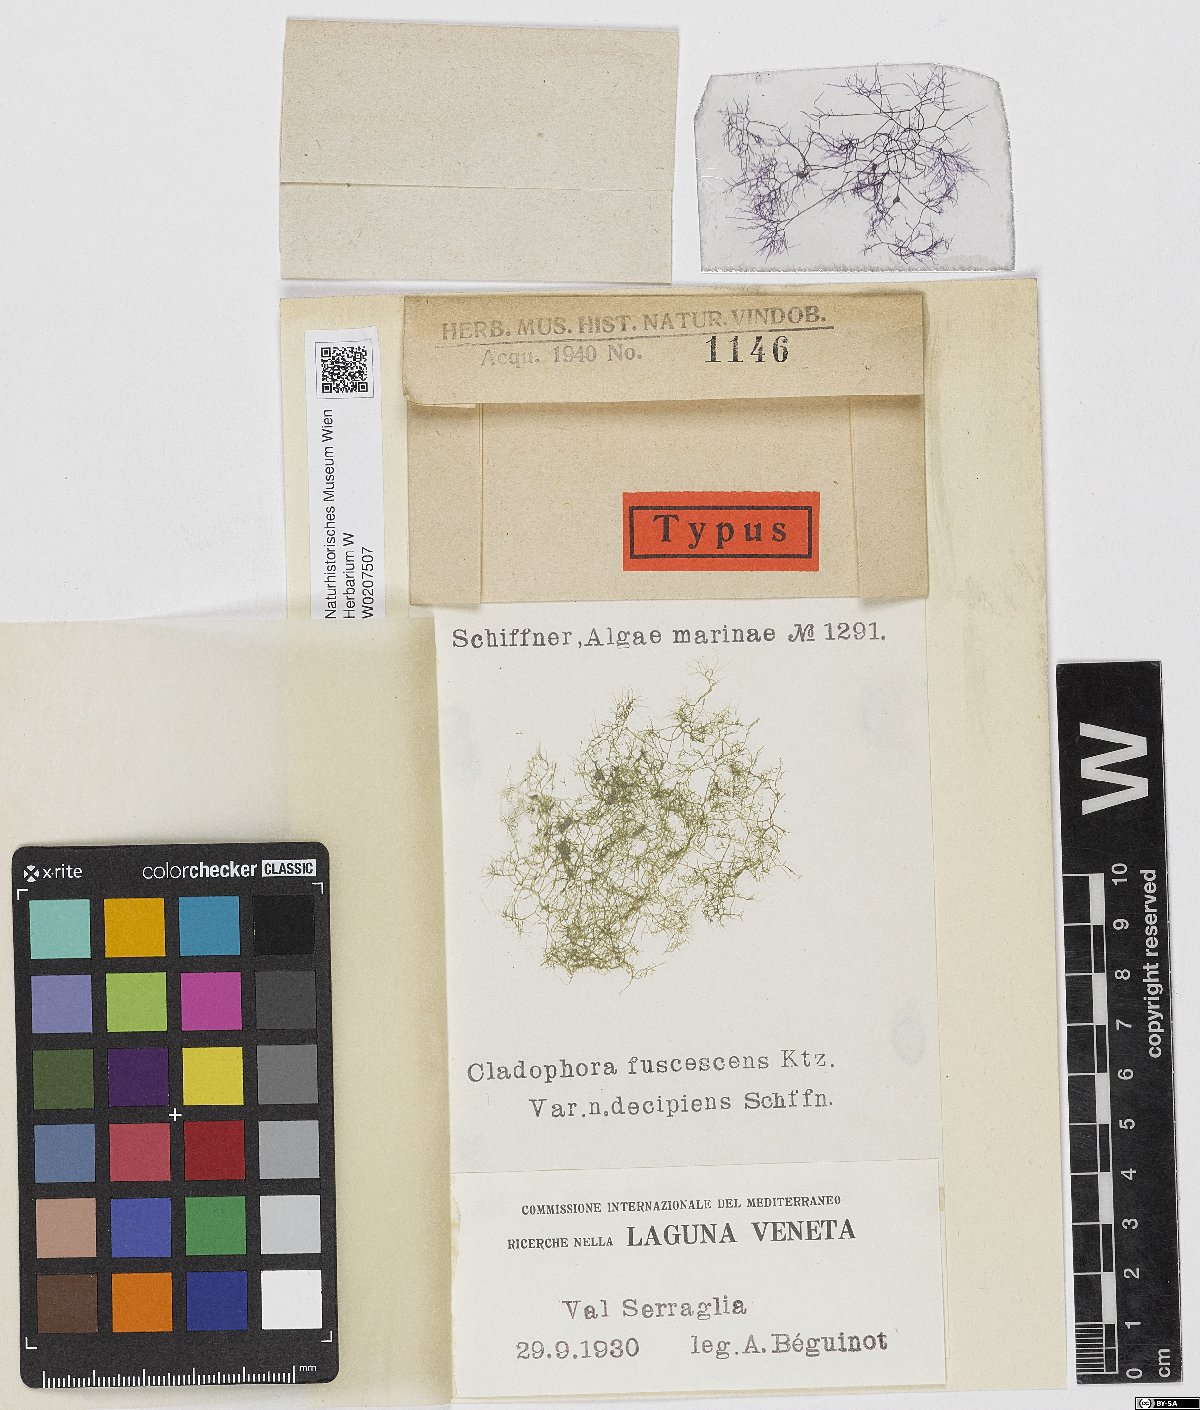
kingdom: Plantae
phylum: Chlorophyta
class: Ulvophyceae
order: Cladophorales
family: Cladophoraceae
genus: Cladophora
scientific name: Cladophora vagabunda
